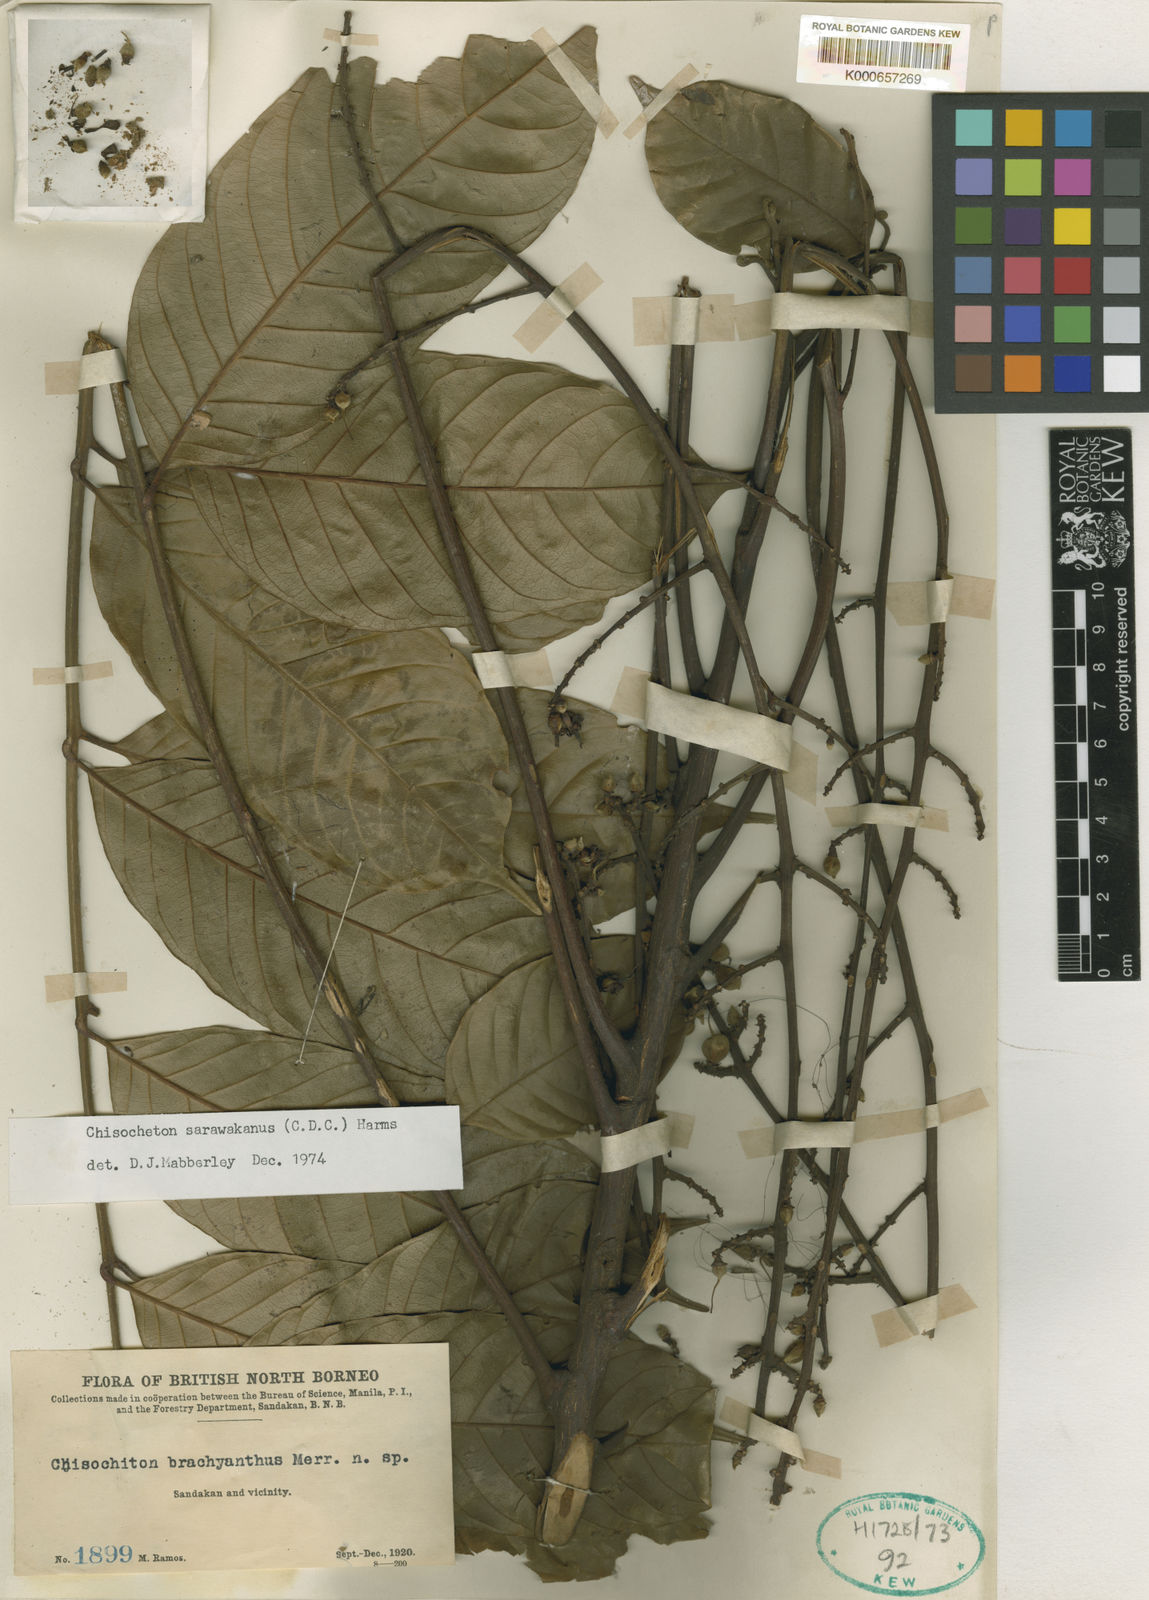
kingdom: Plantae
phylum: Tracheophyta
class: Magnoliopsida
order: Sapindales
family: Meliaceae
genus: Chisocheton
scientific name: Chisocheton sarawakanus
